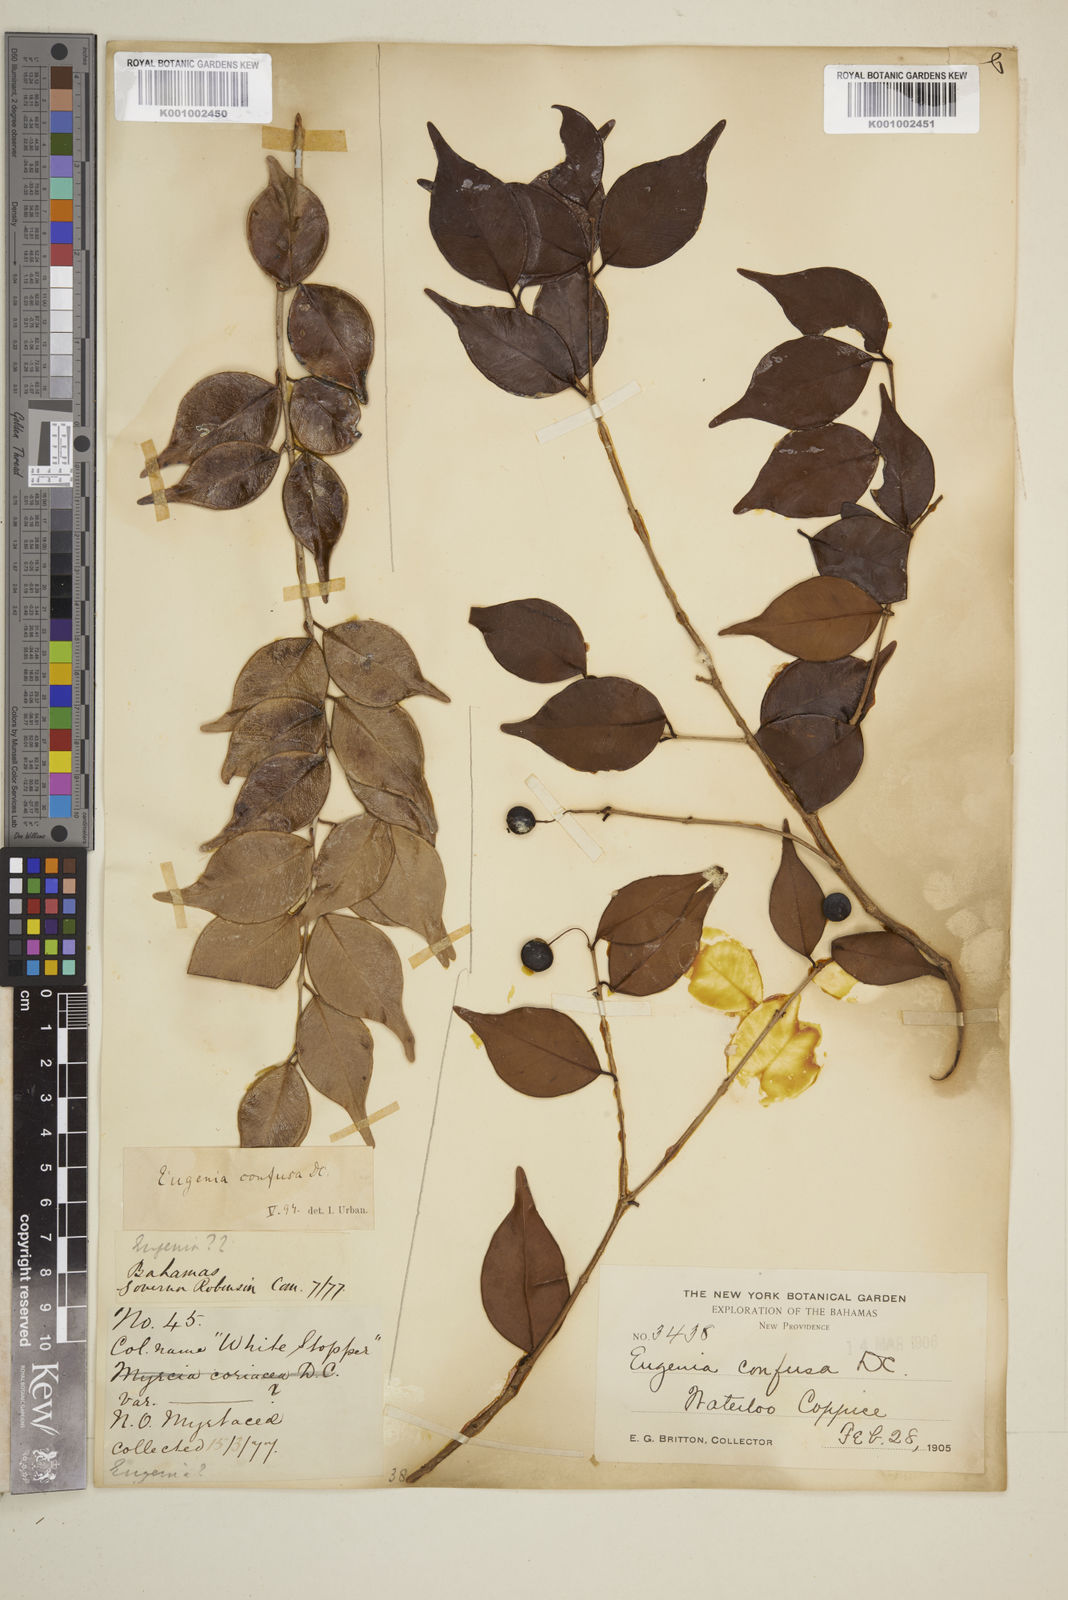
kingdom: Plantae
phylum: Tracheophyta
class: Magnoliopsida
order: Myrtales
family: Myrtaceae
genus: Eugenia
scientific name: Eugenia confusa
